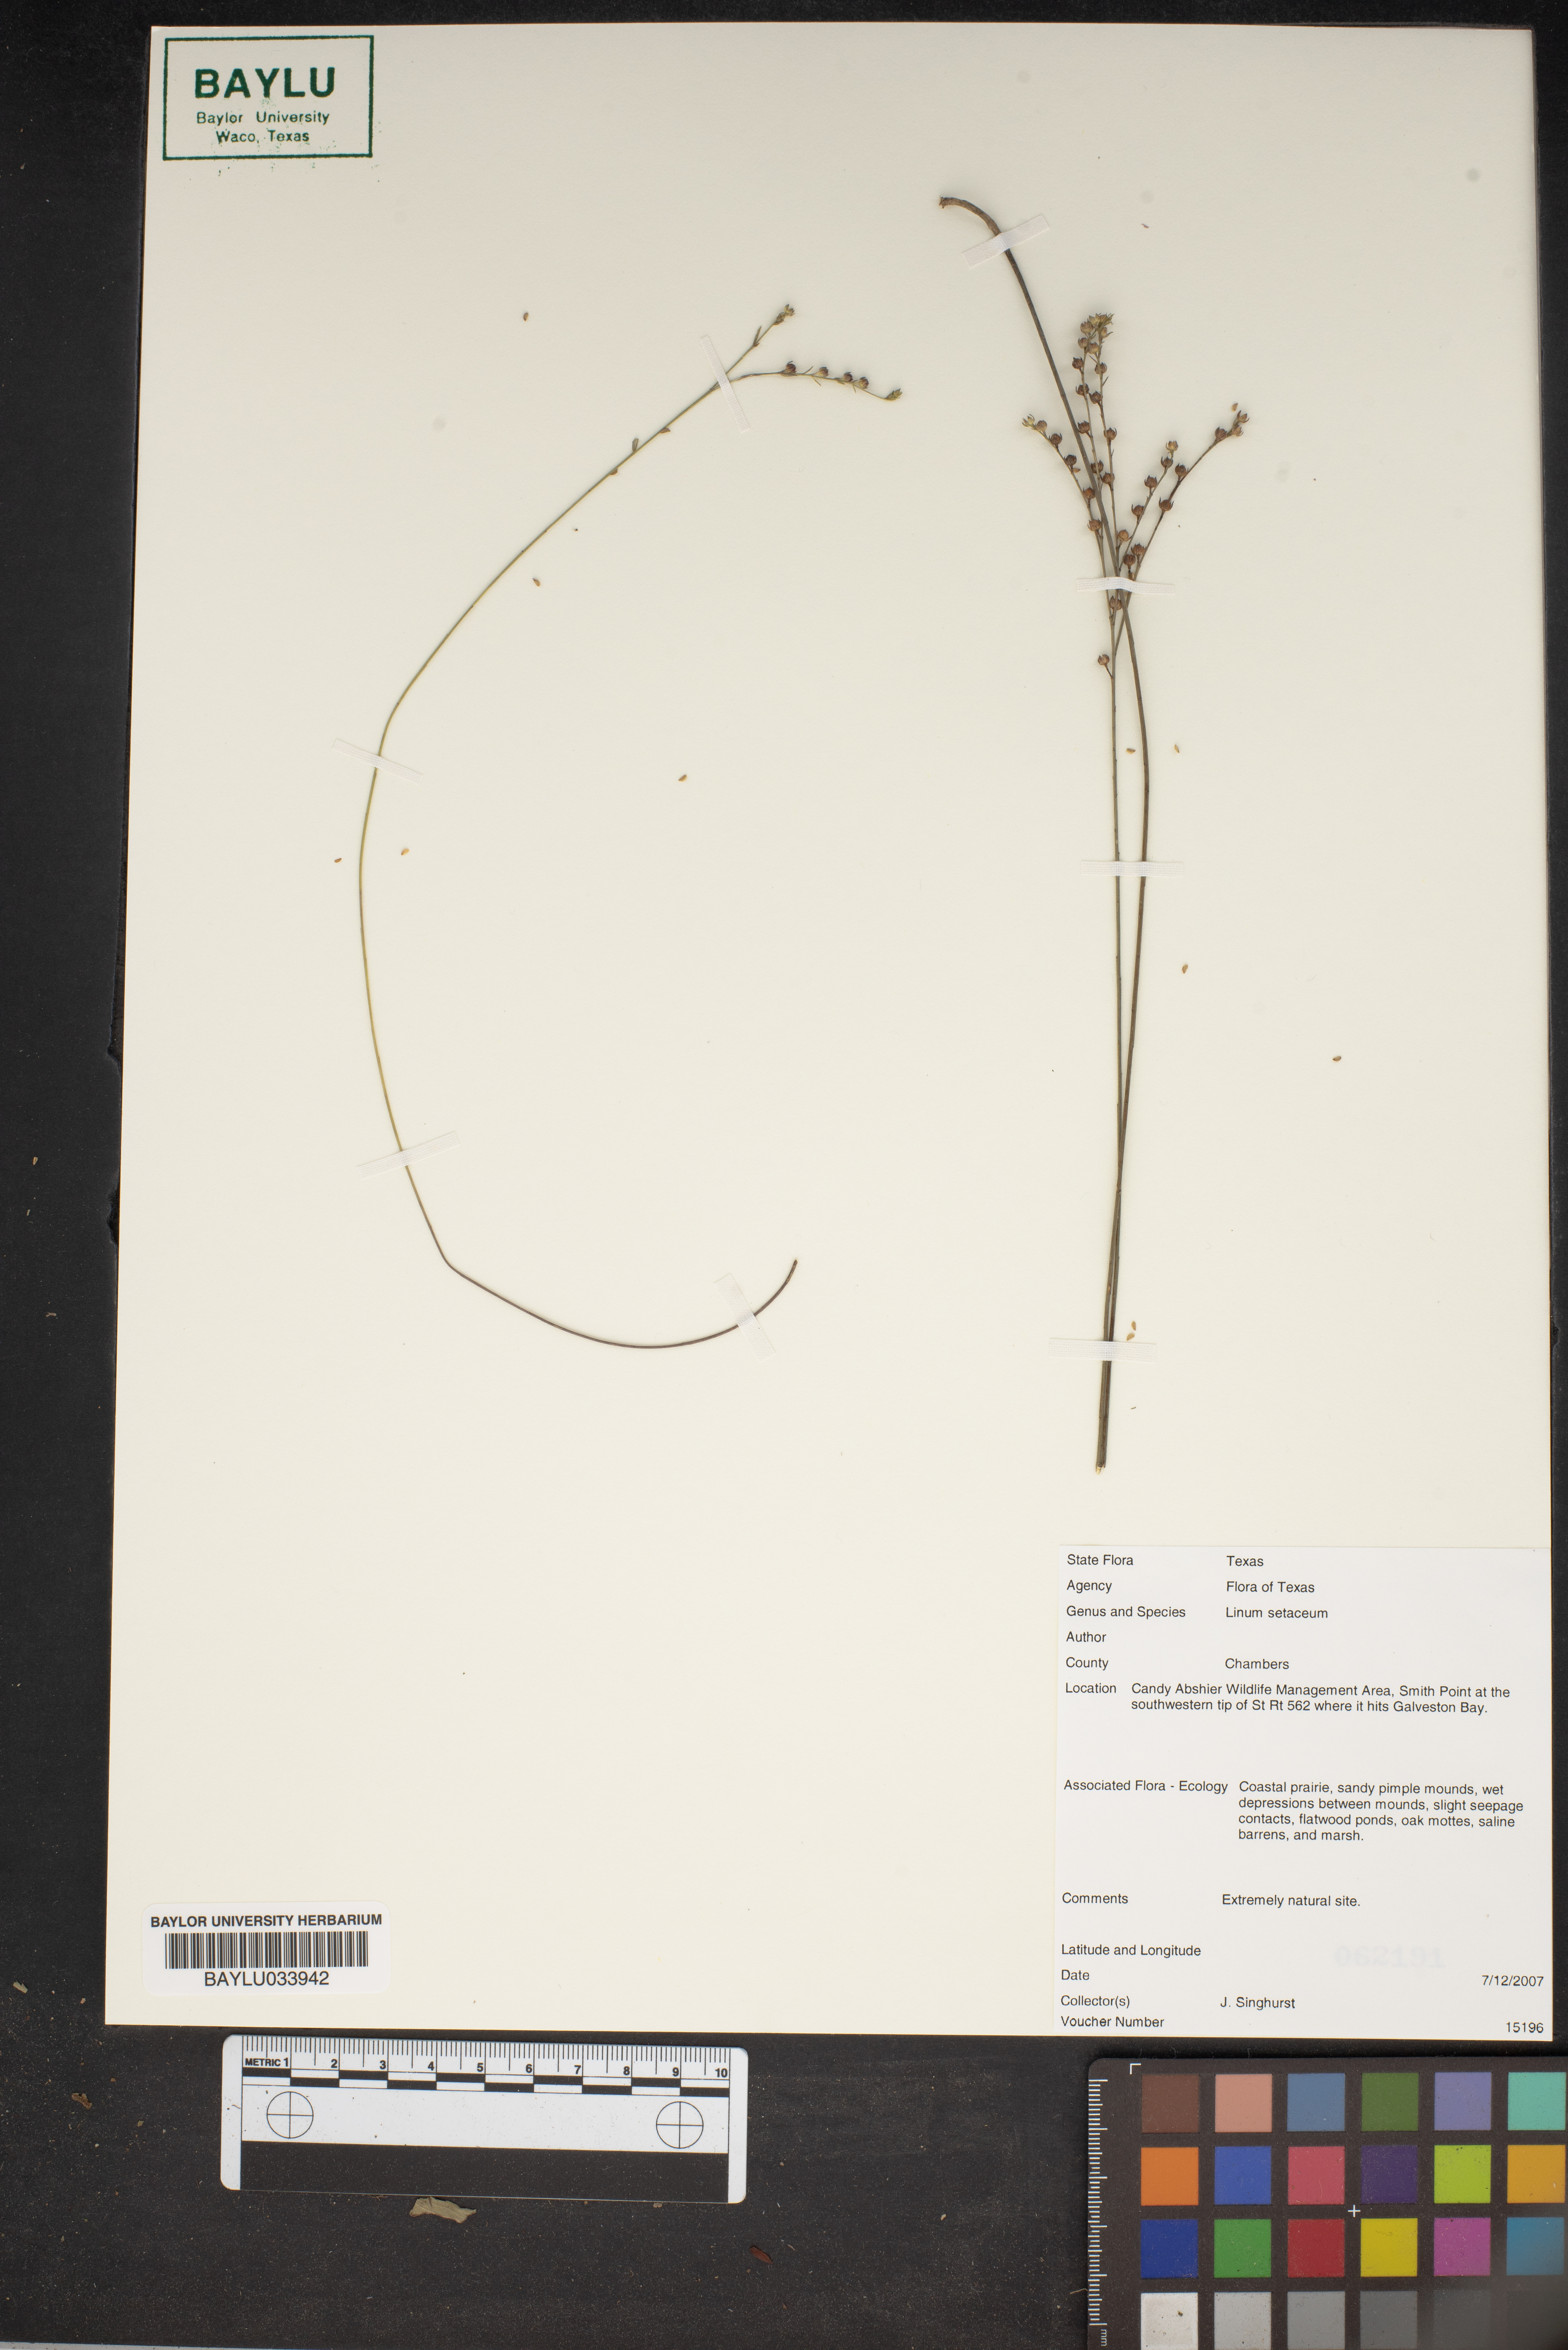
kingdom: Plantae
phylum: Tracheophyta
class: Magnoliopsida
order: Malpighiales
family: Linaceae
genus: Linum
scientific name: Linum setaceum
